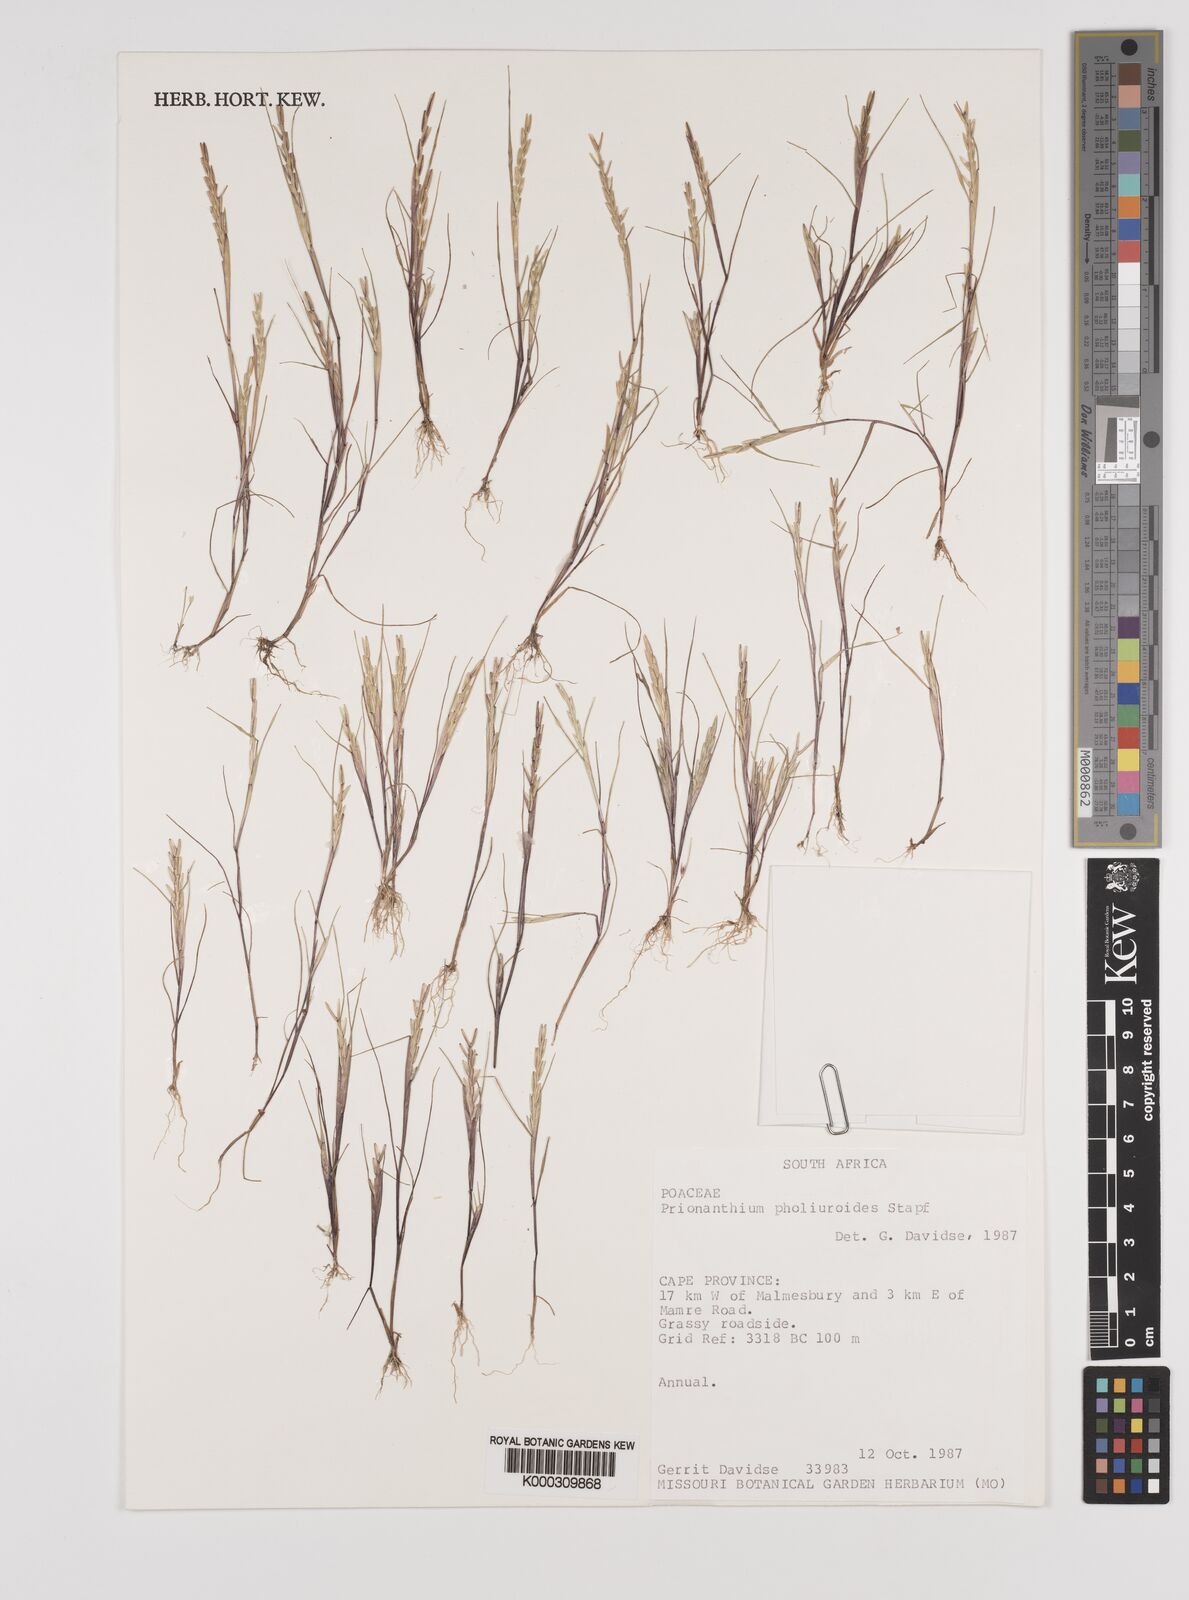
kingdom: Plantae
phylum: Tracheophyta
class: Liliopsida
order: Poales
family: Poaceae
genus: Pentameris
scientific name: Pentameris pholiuroides
